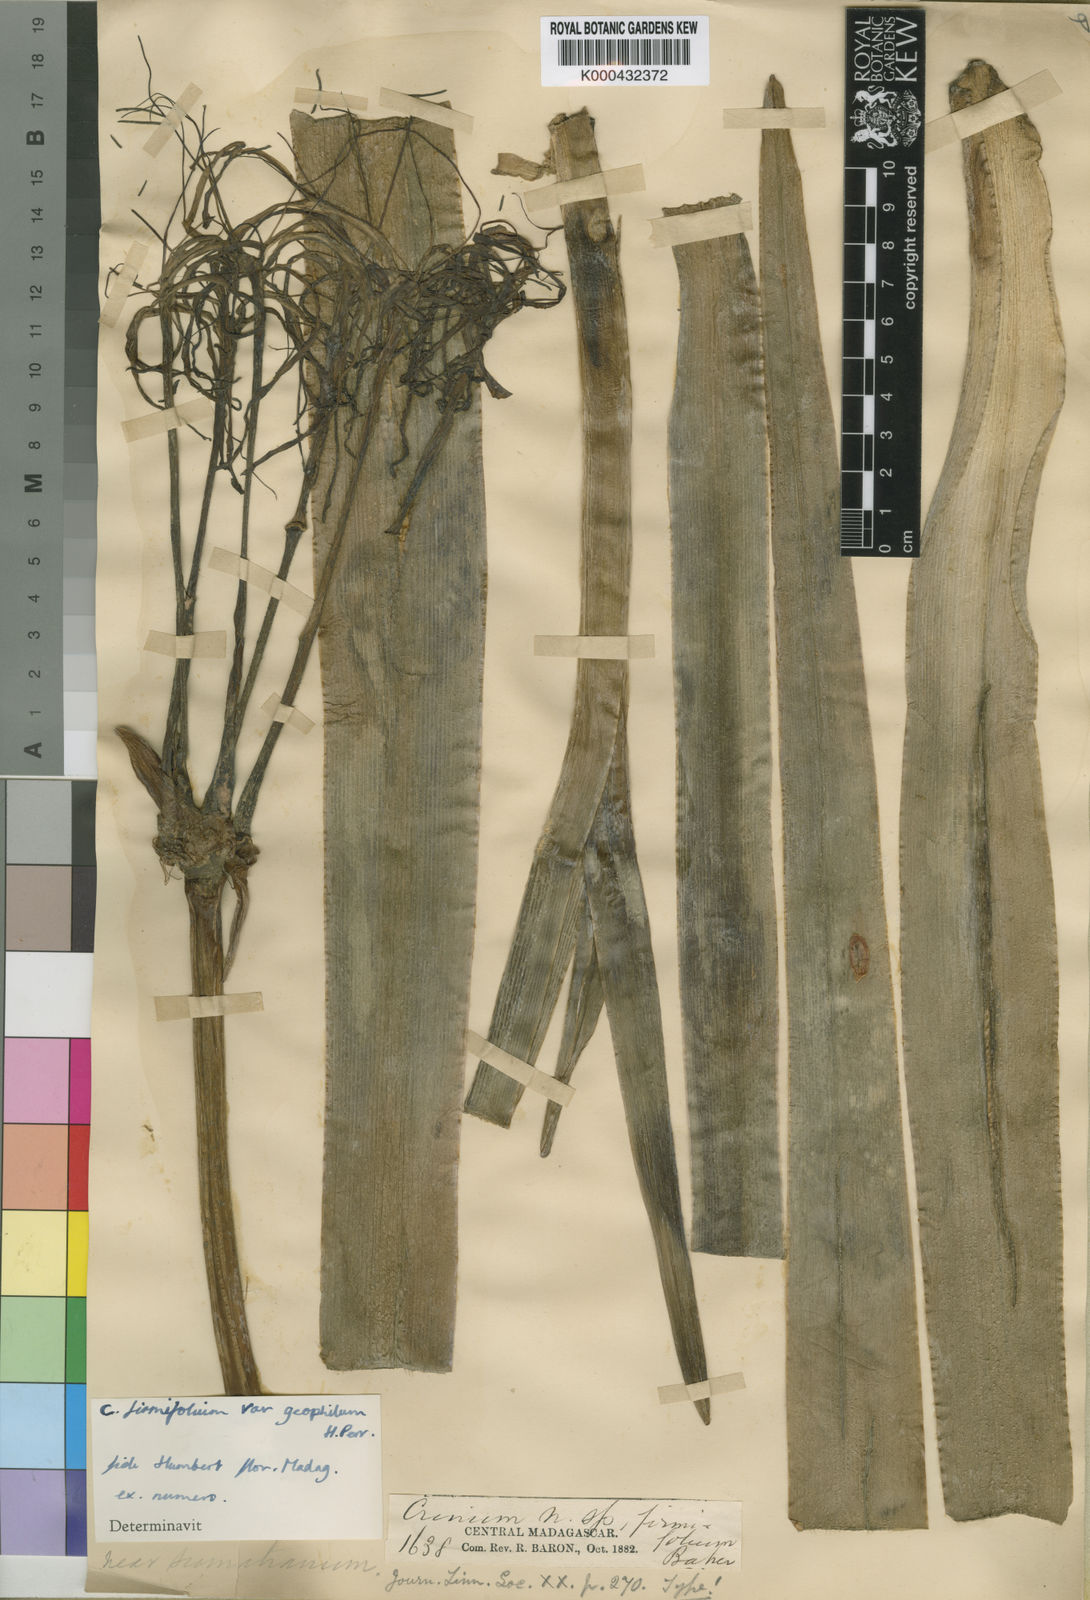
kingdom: Plantae
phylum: Tracheophyta
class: Liliopsida
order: Asparagales
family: Amaryllidaceae
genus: Crinum
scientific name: Crinum firmifolium
